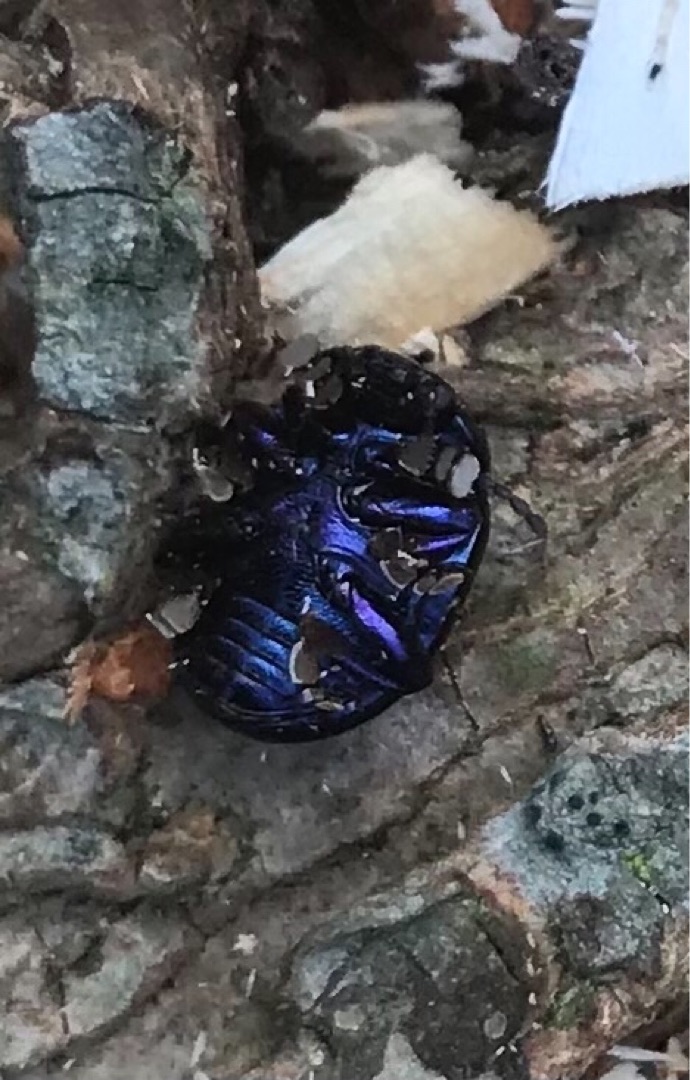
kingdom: Animalia
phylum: Arthropoda
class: Insecta
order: Coleoptera
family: Chrysomelidae
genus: Chrysolina
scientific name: Chrysolina sturmi
